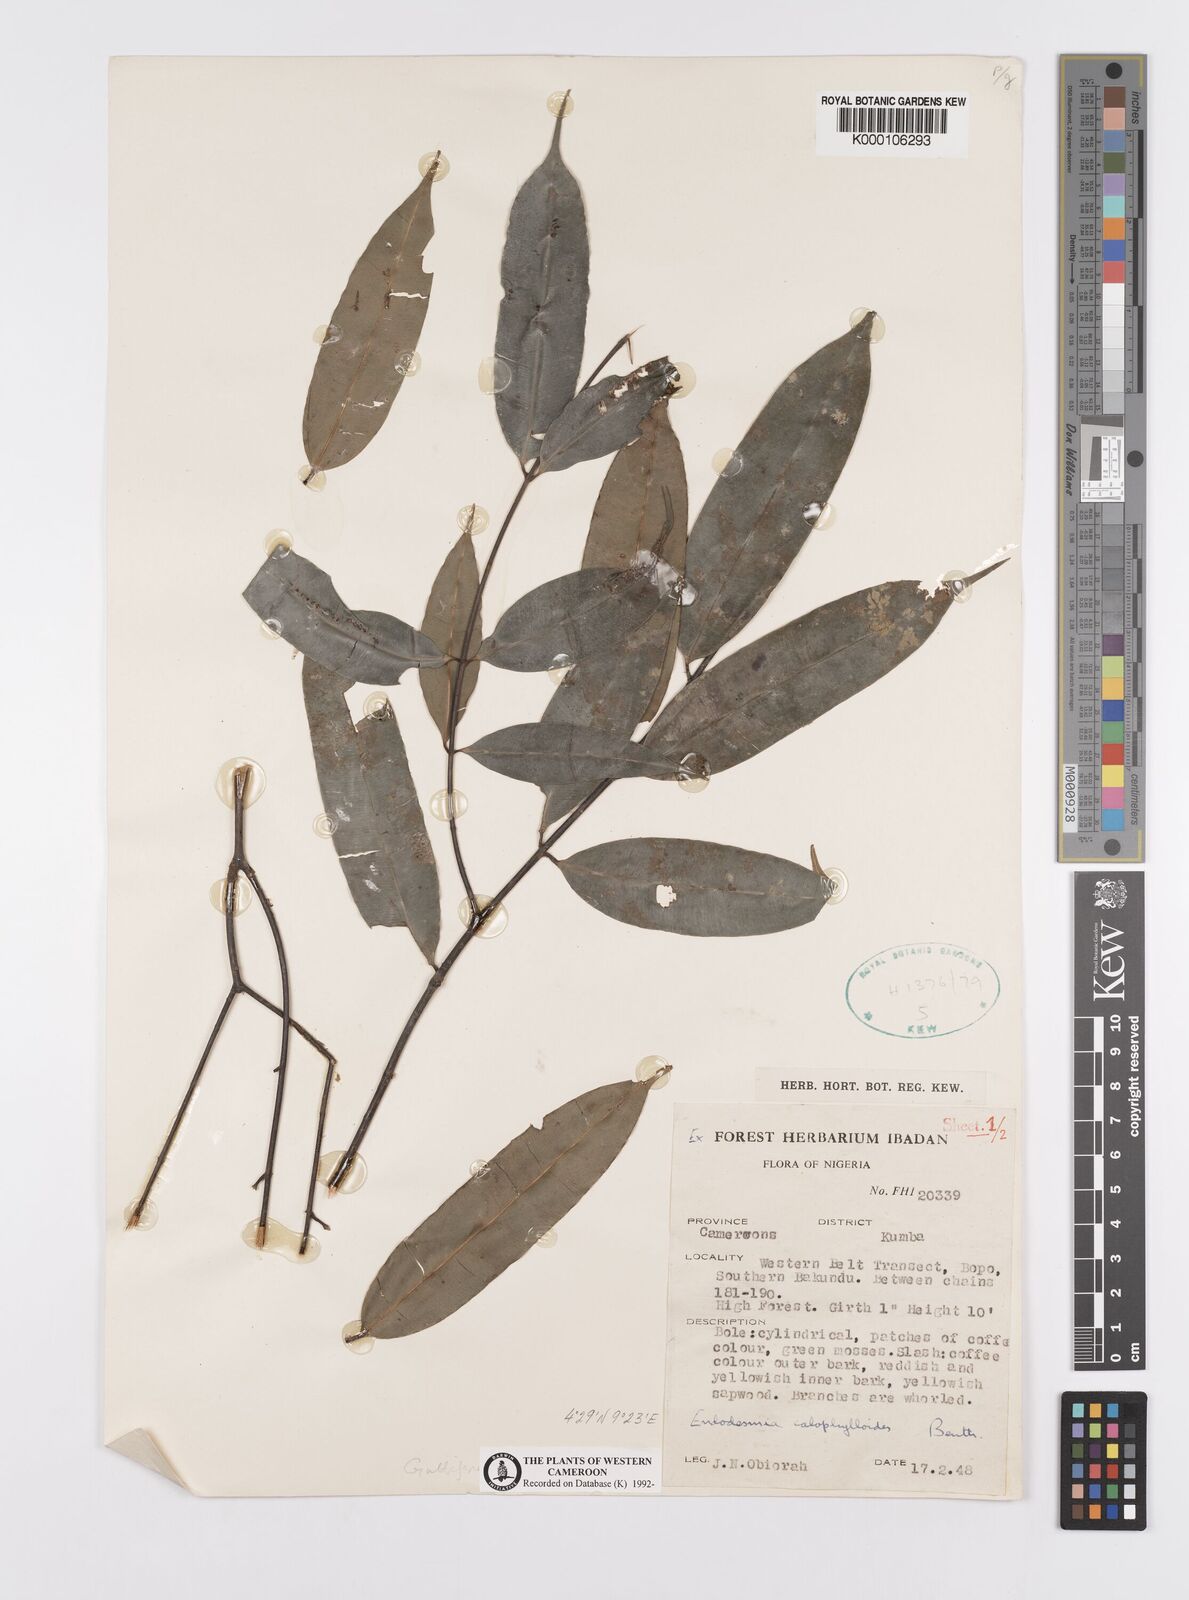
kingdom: Plantae
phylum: Tracheophyta
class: Magnoliopsida
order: Malpighiales
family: Calophyllaceae
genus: Endodesmia
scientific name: Endodesmia calophylloides
